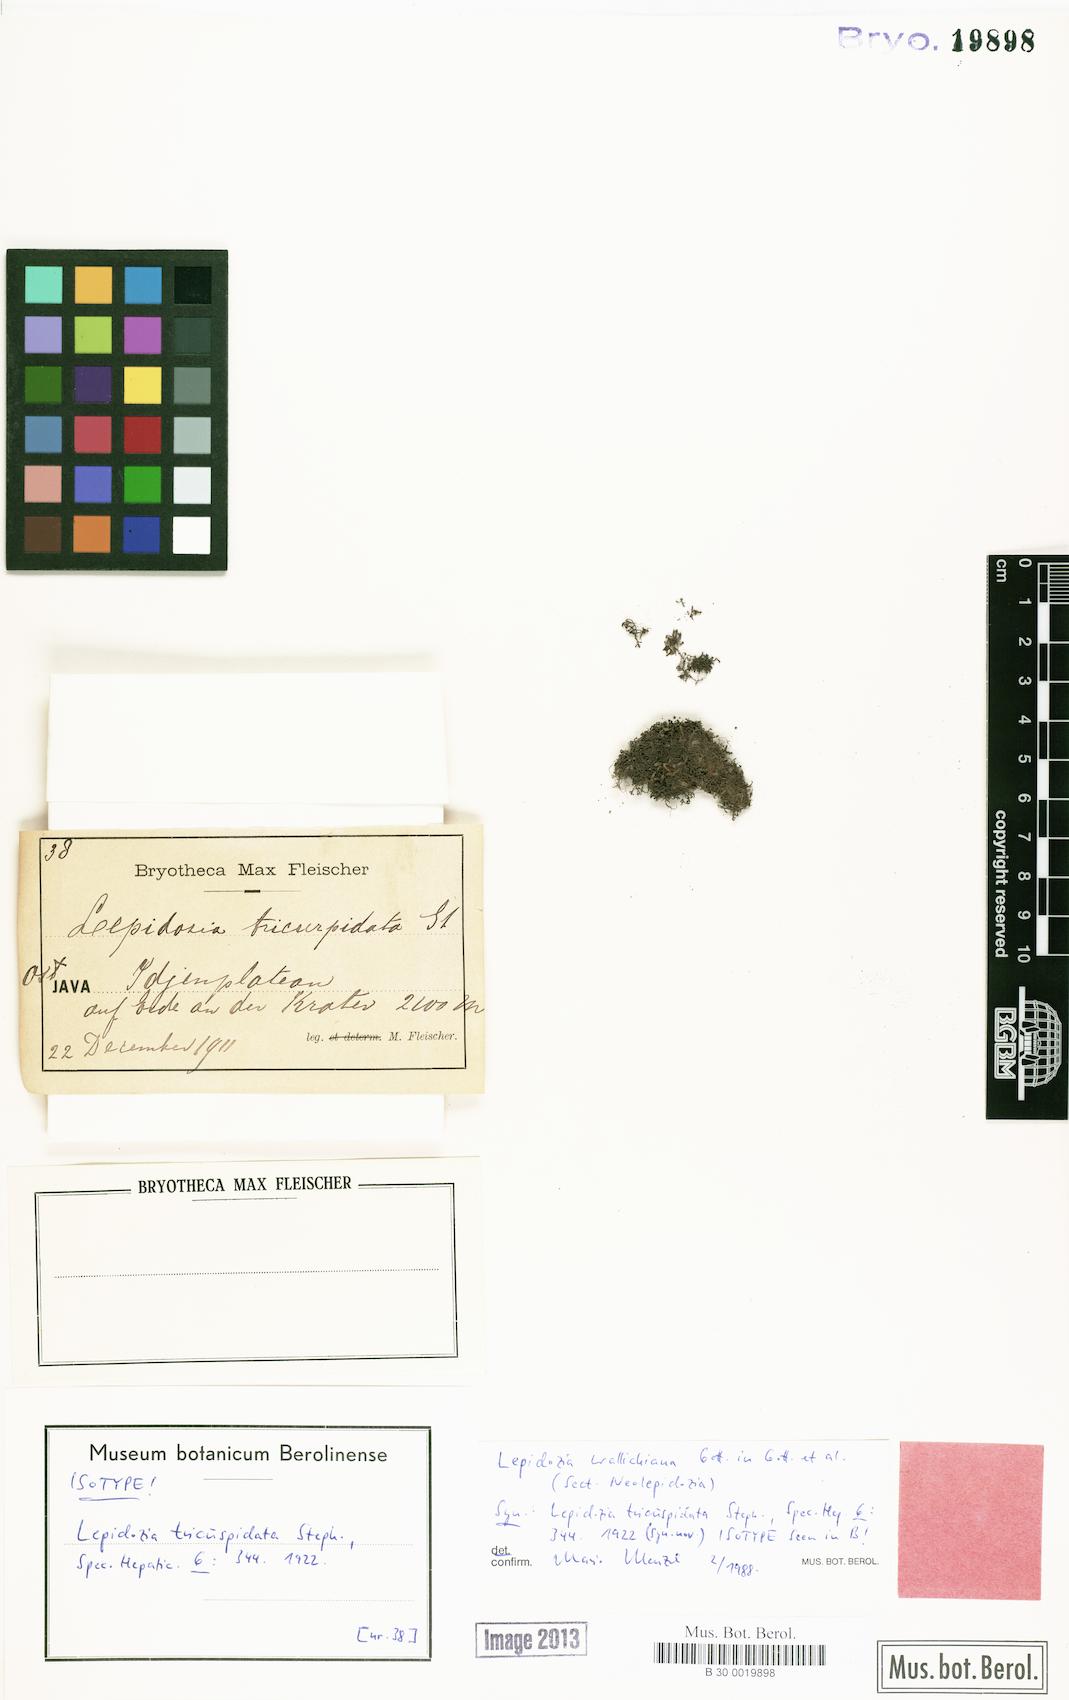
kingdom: Plantae
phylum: Marchantiophyta
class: Jungermanniopsida
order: Jungermanniales
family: Lepidoziaceae
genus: Neolepidozia
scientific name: Neolepidozia wallichiana
